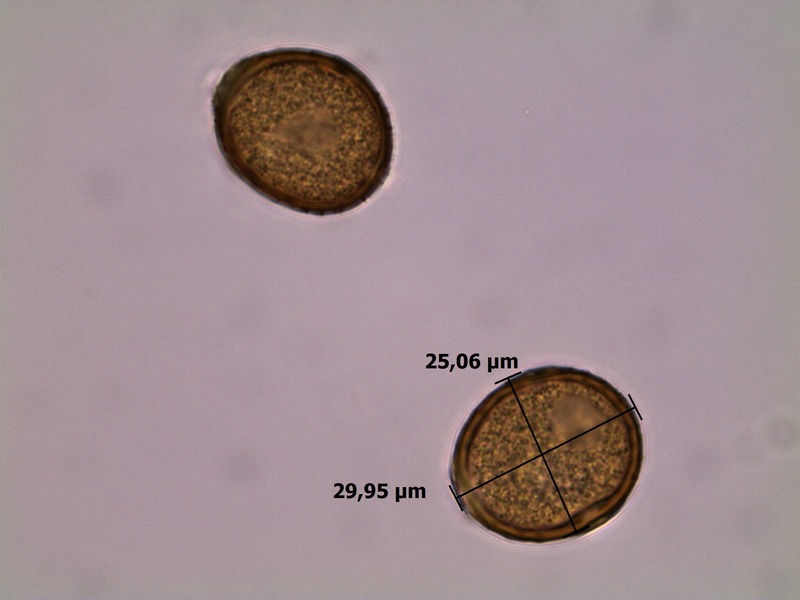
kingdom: Fungi
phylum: Basidiomycota
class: Pucciniomycetes
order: Pucciniales
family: Pucciniaceae
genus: Puccinia
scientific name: Puccinia convolvuli
